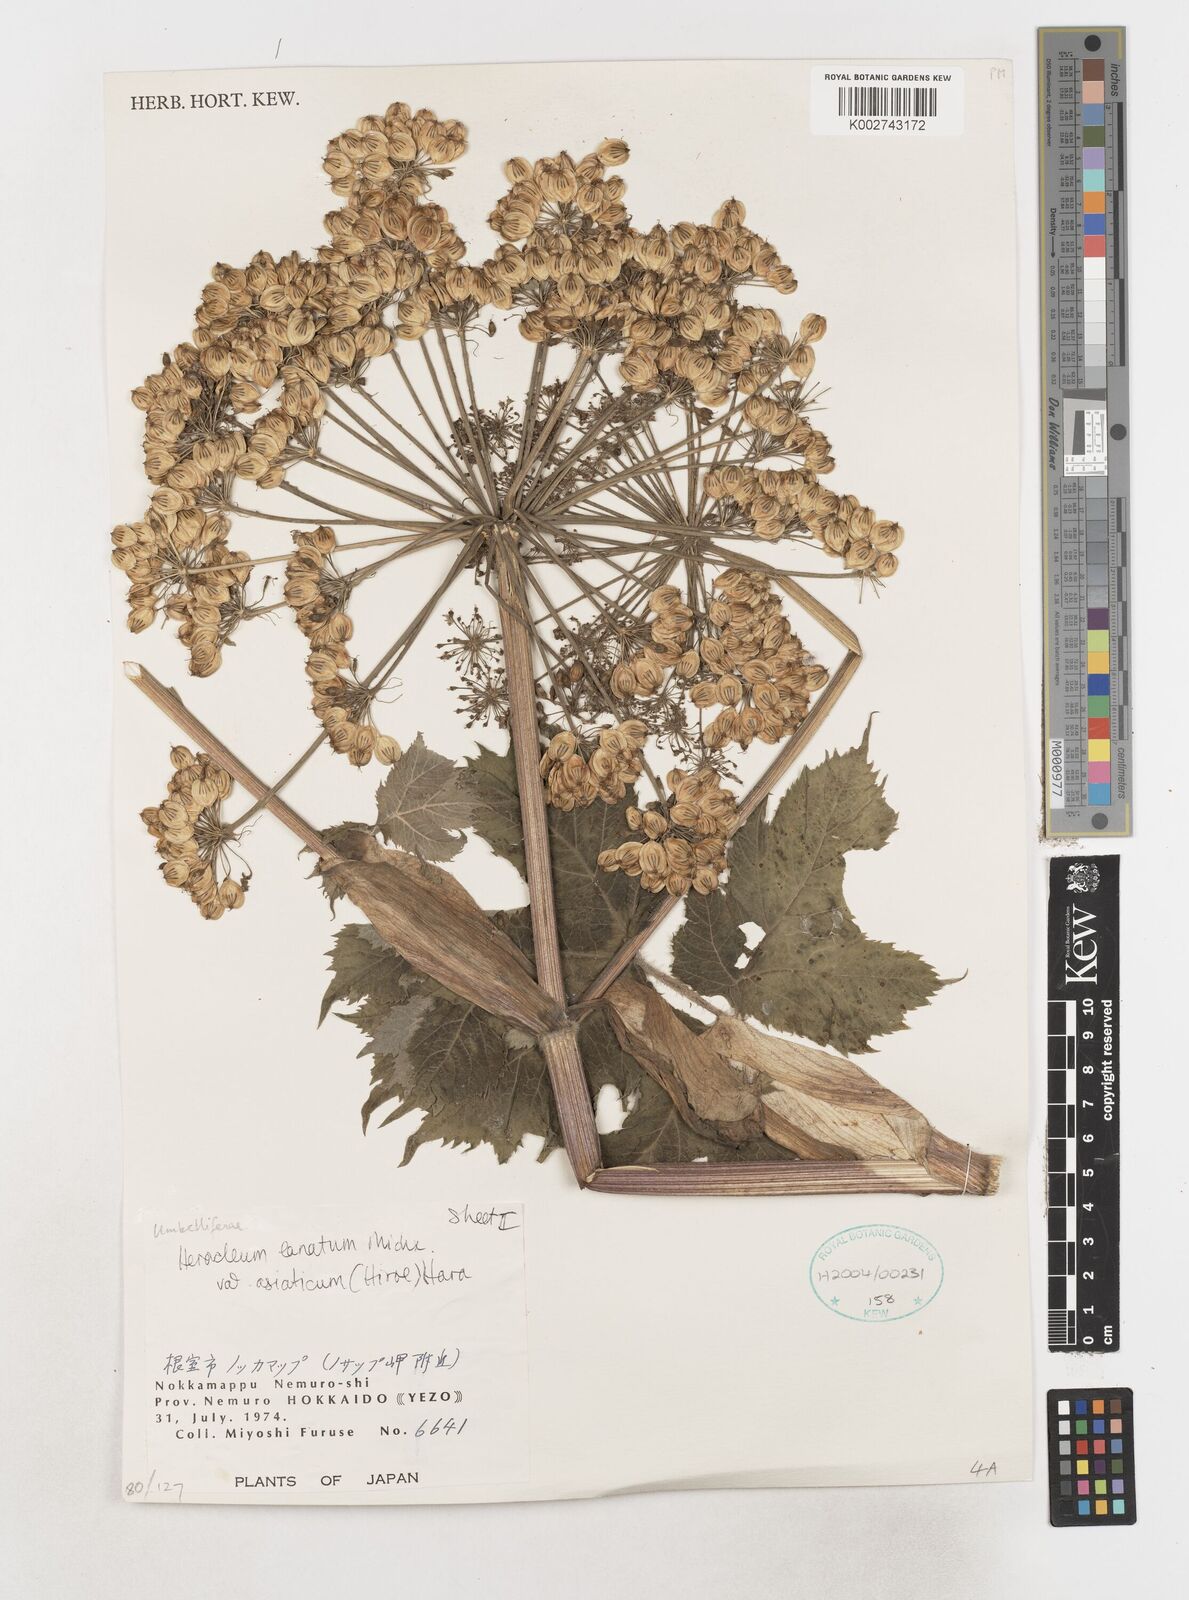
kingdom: Plantae
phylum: Tracheophyta
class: Magnoliopsida
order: Apiales
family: Apiaceae
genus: Heracleum
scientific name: Heracleum maximum
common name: American cow parsnip
